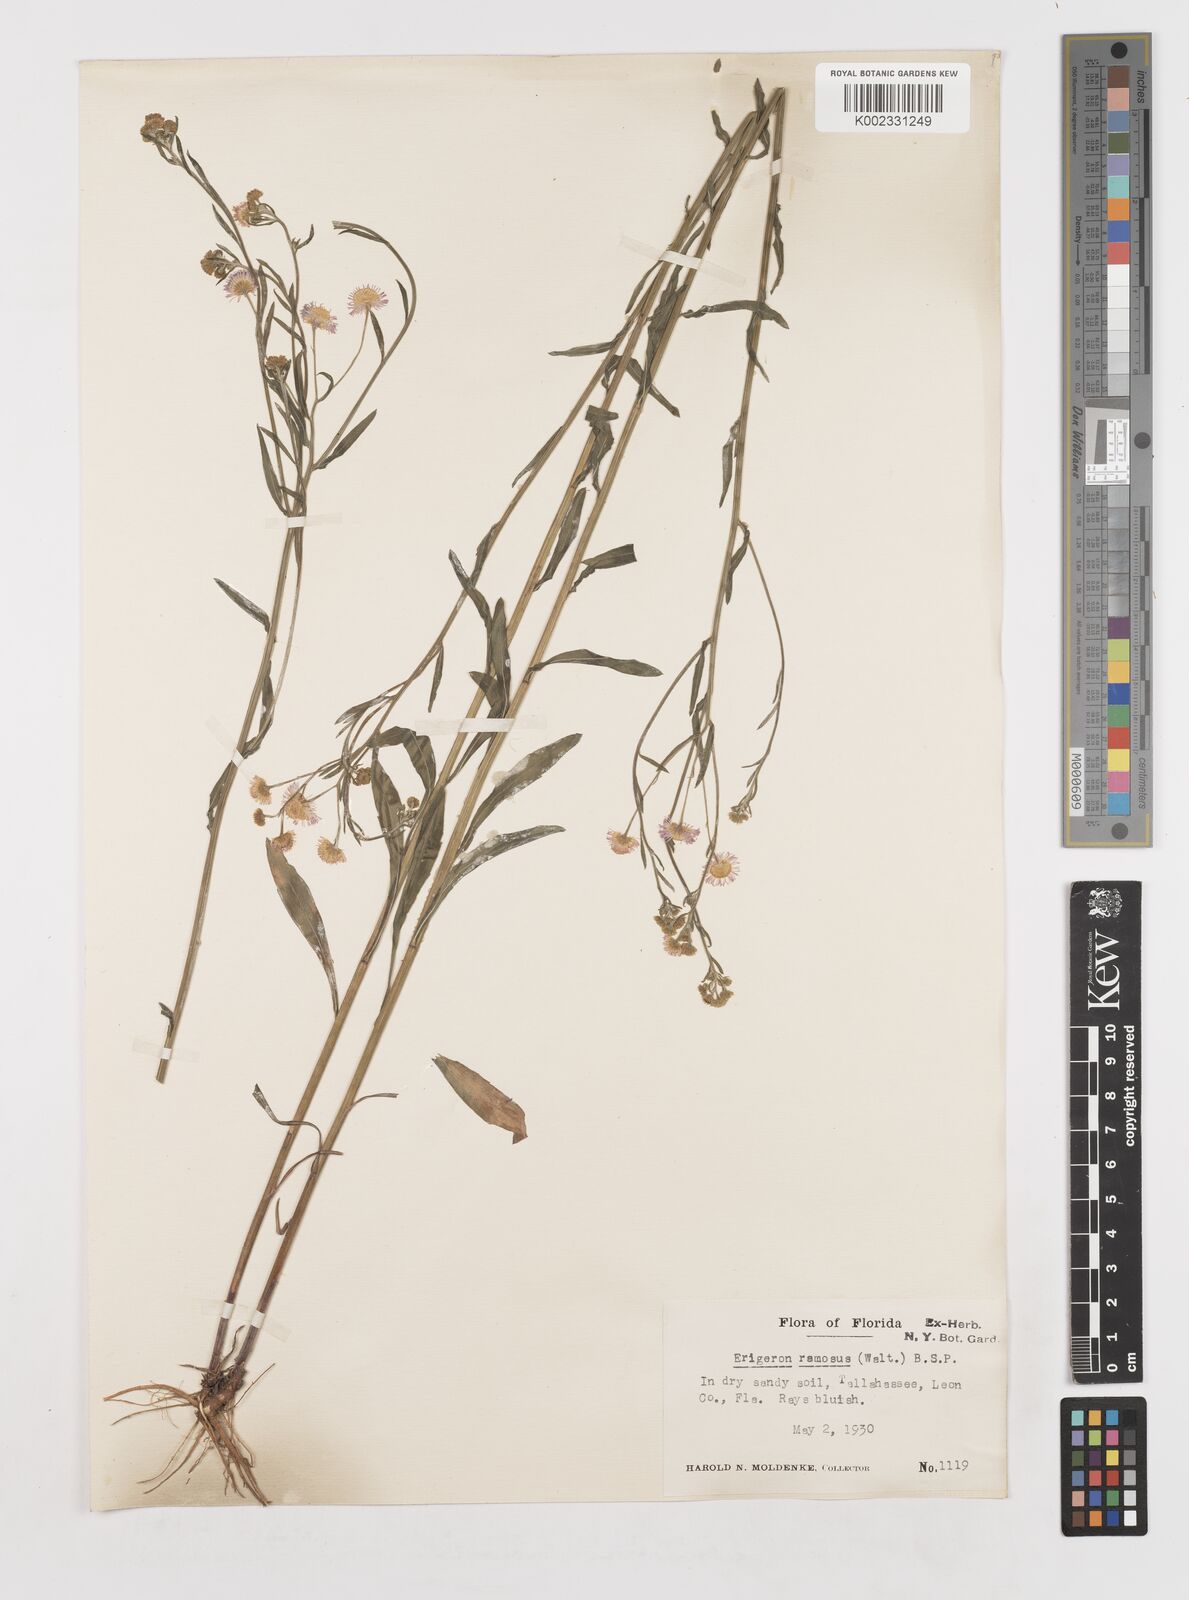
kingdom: Plantae
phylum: Tracheophyta
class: Magnoliopsida
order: Asterales
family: Asteraceae
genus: Erigeron
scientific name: Erigeron strigosus
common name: Common eastern fleabane
